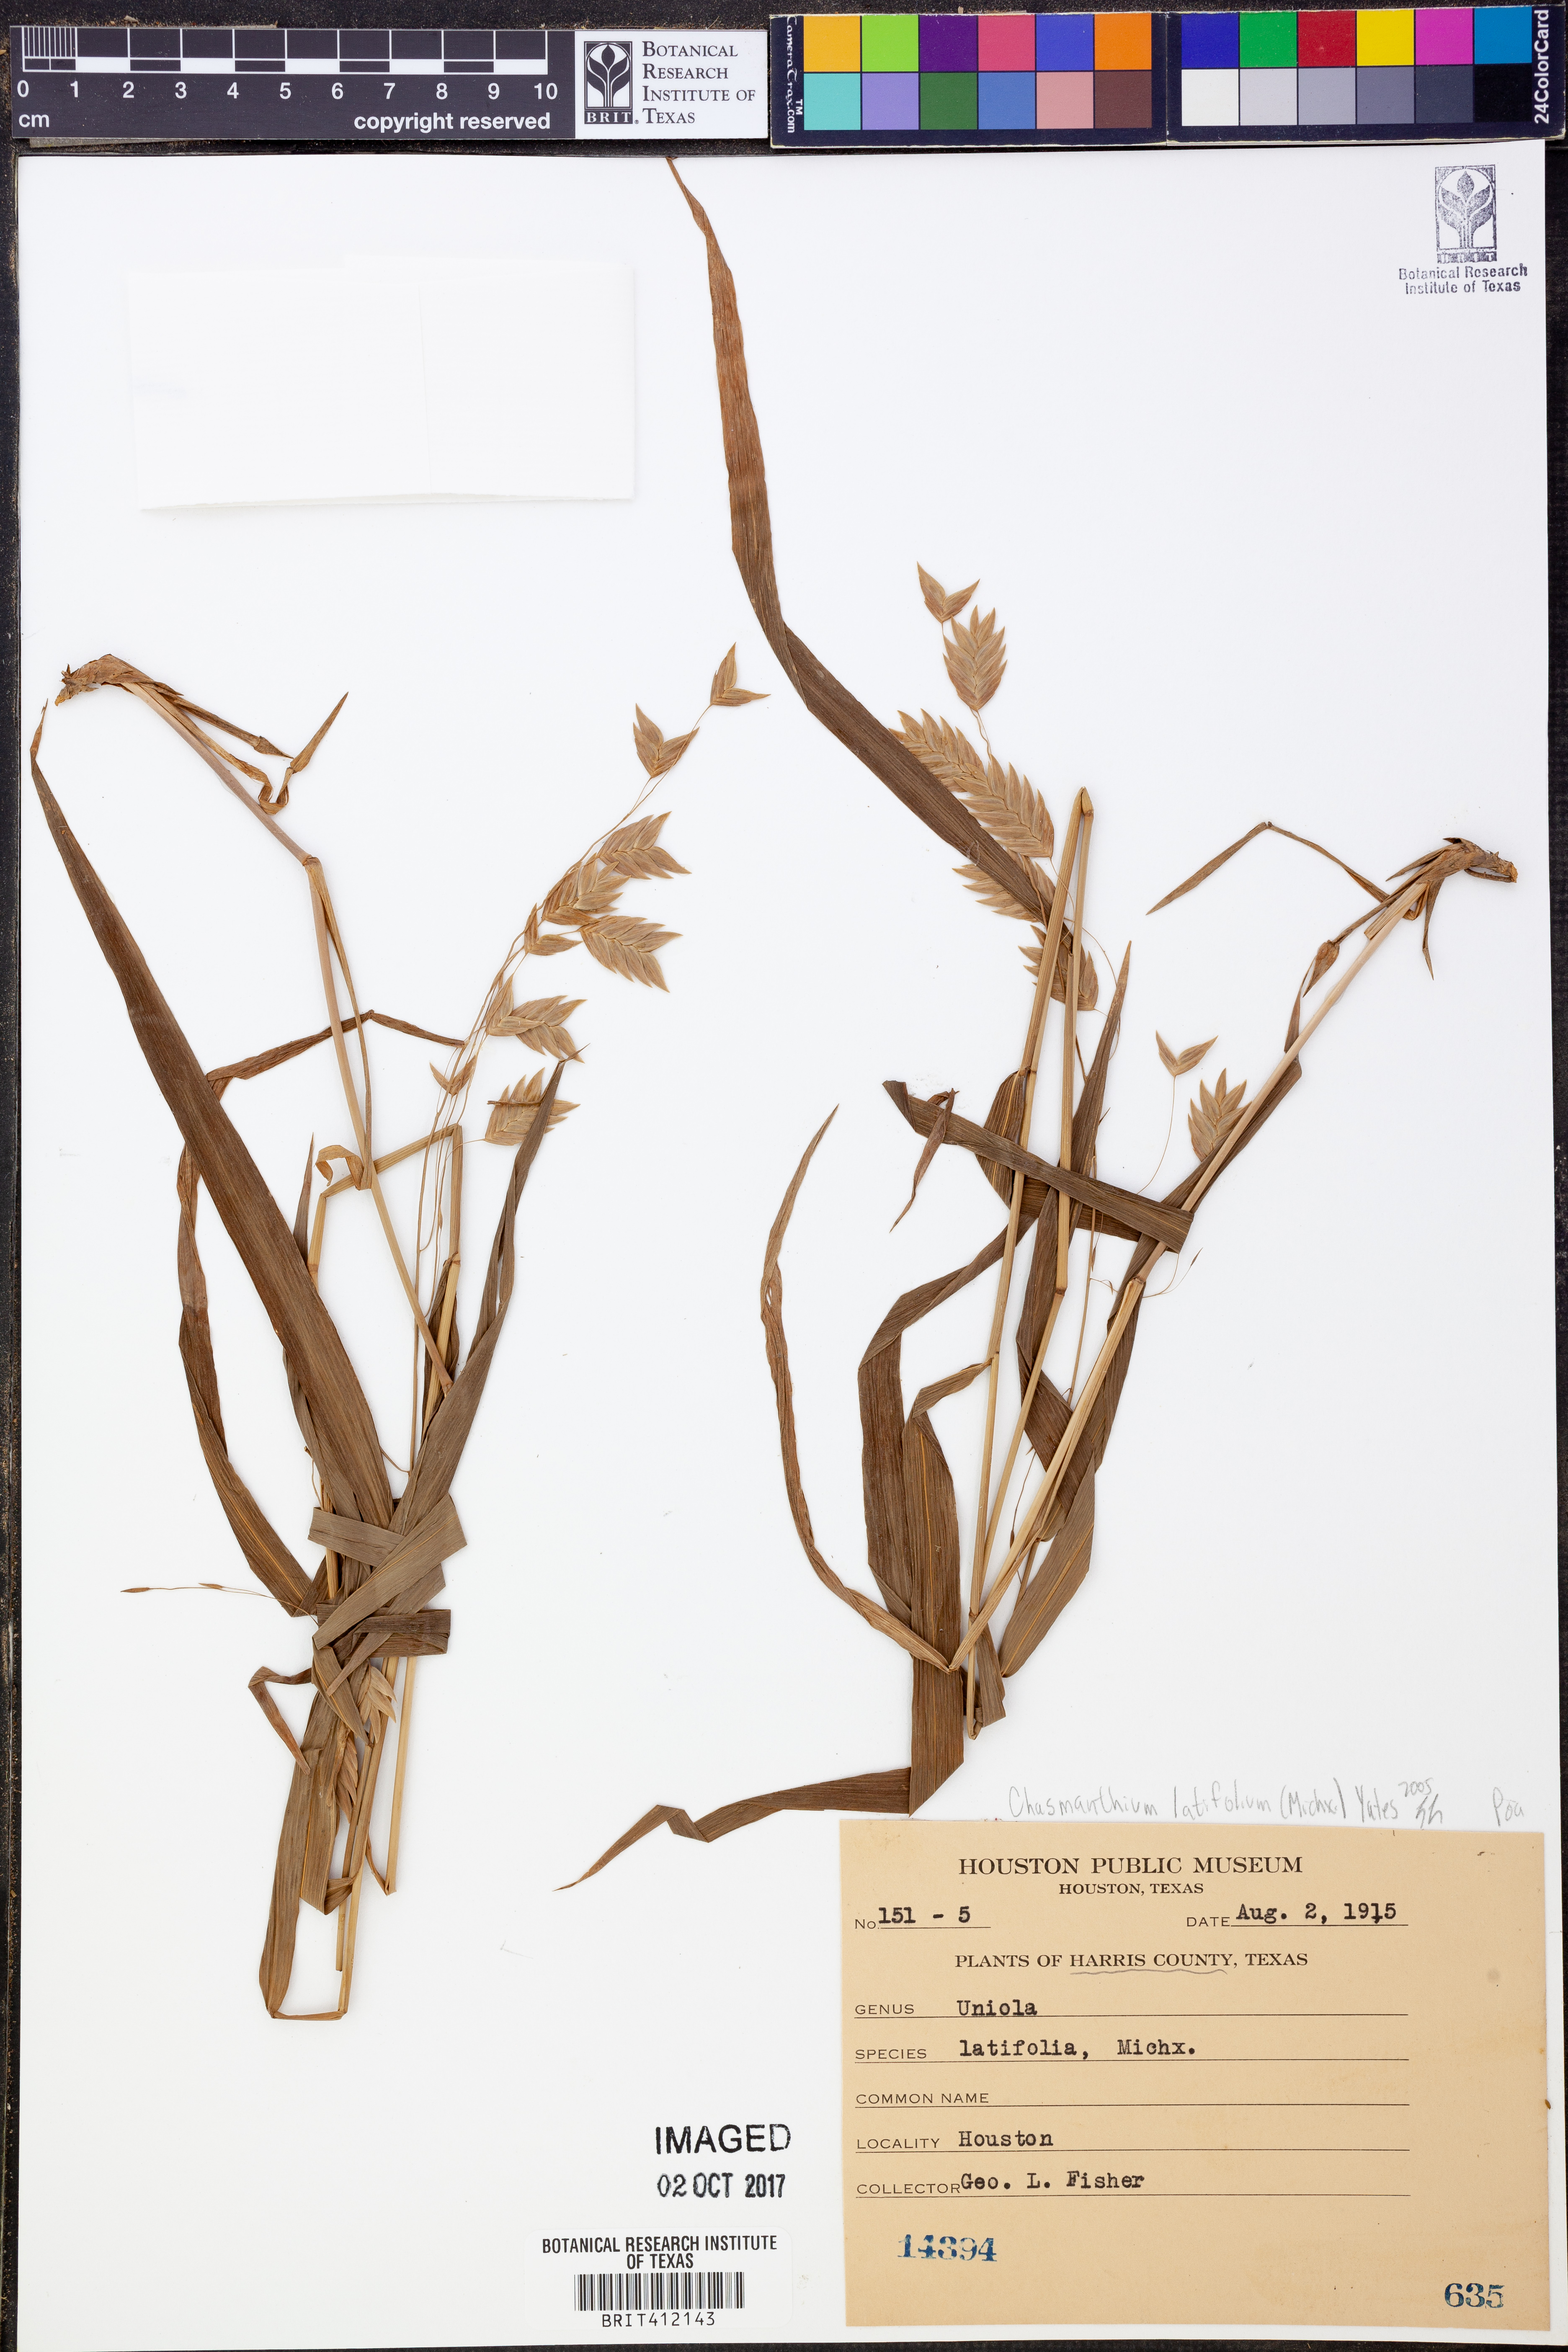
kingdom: Plantae
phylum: Tracheophyta
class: Liliopsida
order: Poales
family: Poaceae
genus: Chasmanthium
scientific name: Chasmanthium latifolium
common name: Broad-leaved chasmanthium
